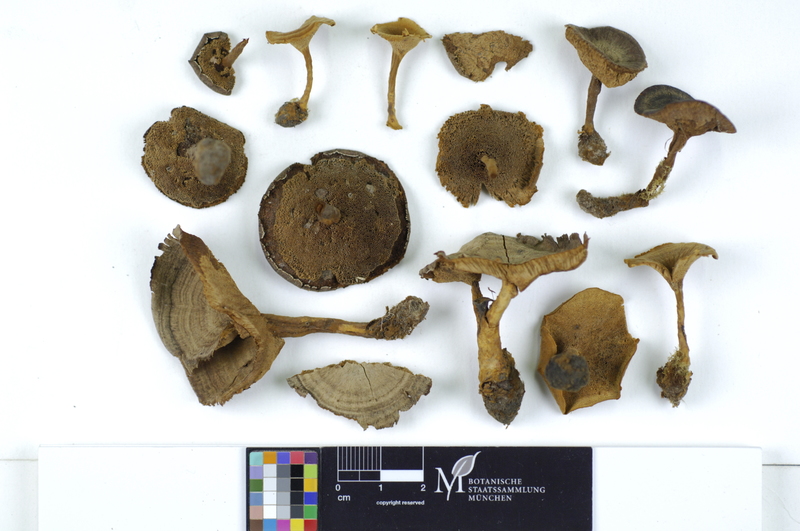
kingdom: Fungi
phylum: Basidiomycota
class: Agaricomycetes
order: Hymenochaetales
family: Hymenochaetaceae
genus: Coltricia
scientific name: Coltricia perennis
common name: Tiger's eye
